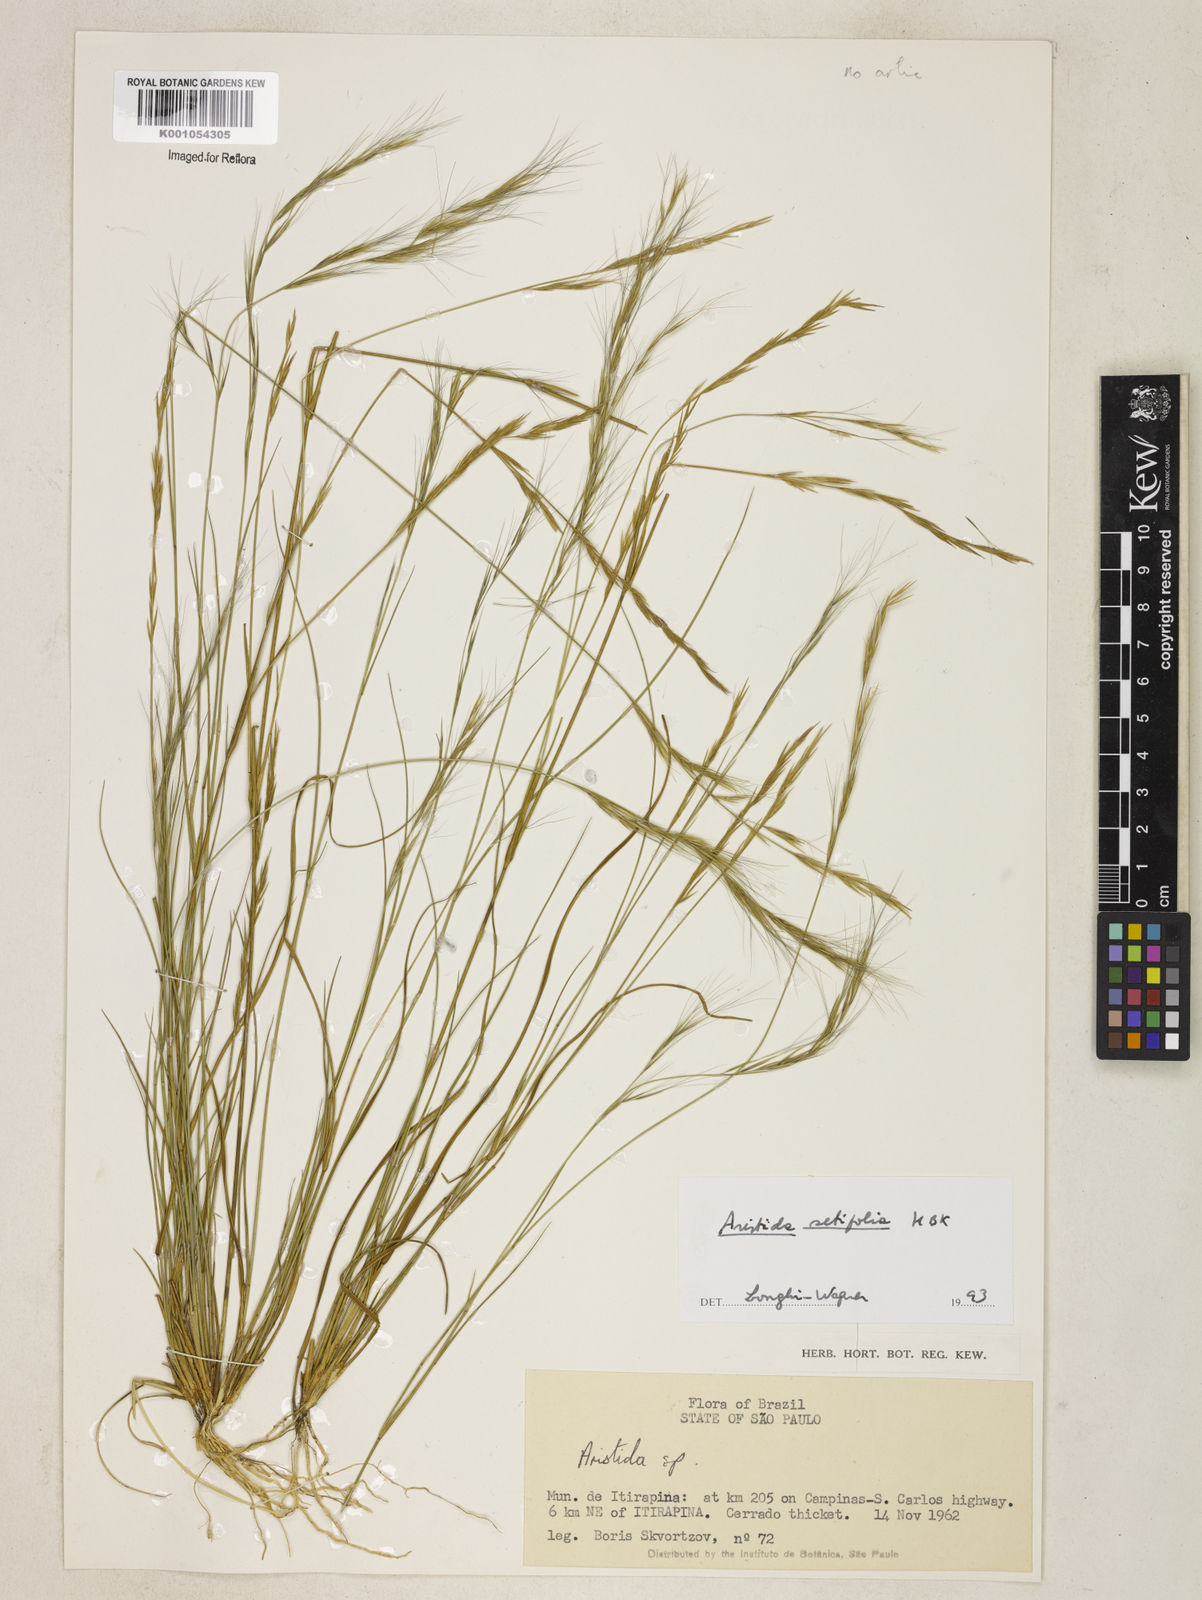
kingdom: Plantae
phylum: Tracheophyta
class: Liliopsida
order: Poales
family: Poaceae
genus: Aristida
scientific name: Aristida setifolia
